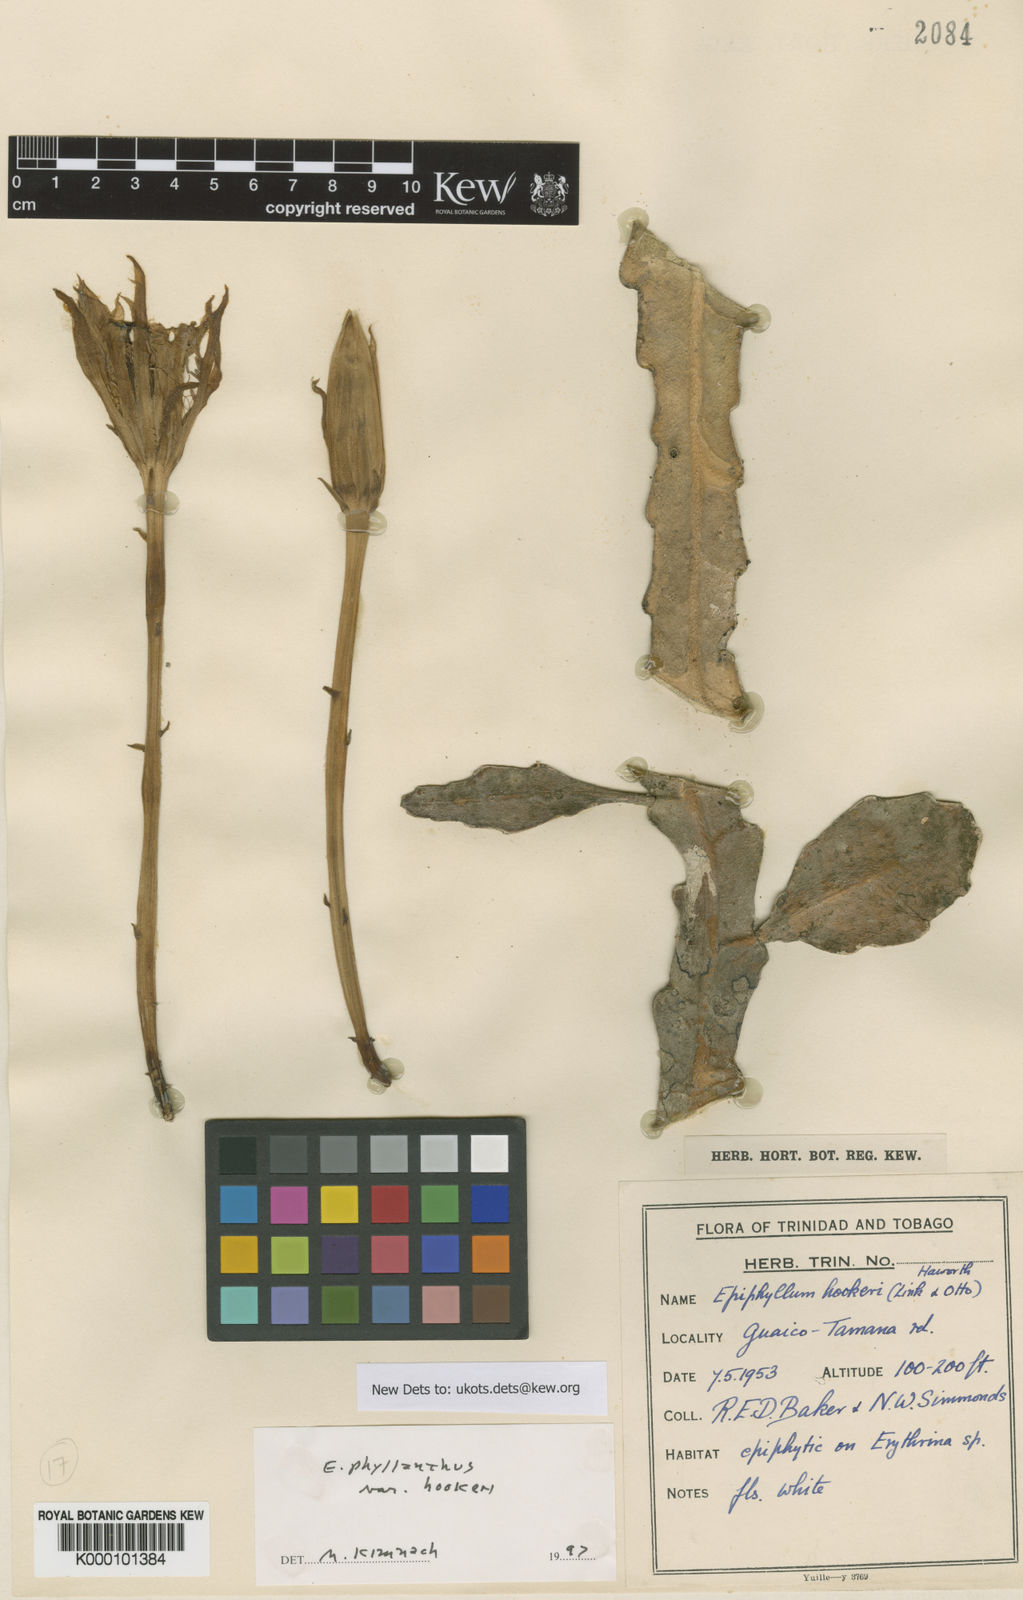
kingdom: Plantae
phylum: Tracheophyta
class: Magnoliopsida
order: Caryophyllales
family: Cactaceae
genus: Epiphyllum
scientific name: Epiphyllum phyllanthus
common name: Climbing cactus
